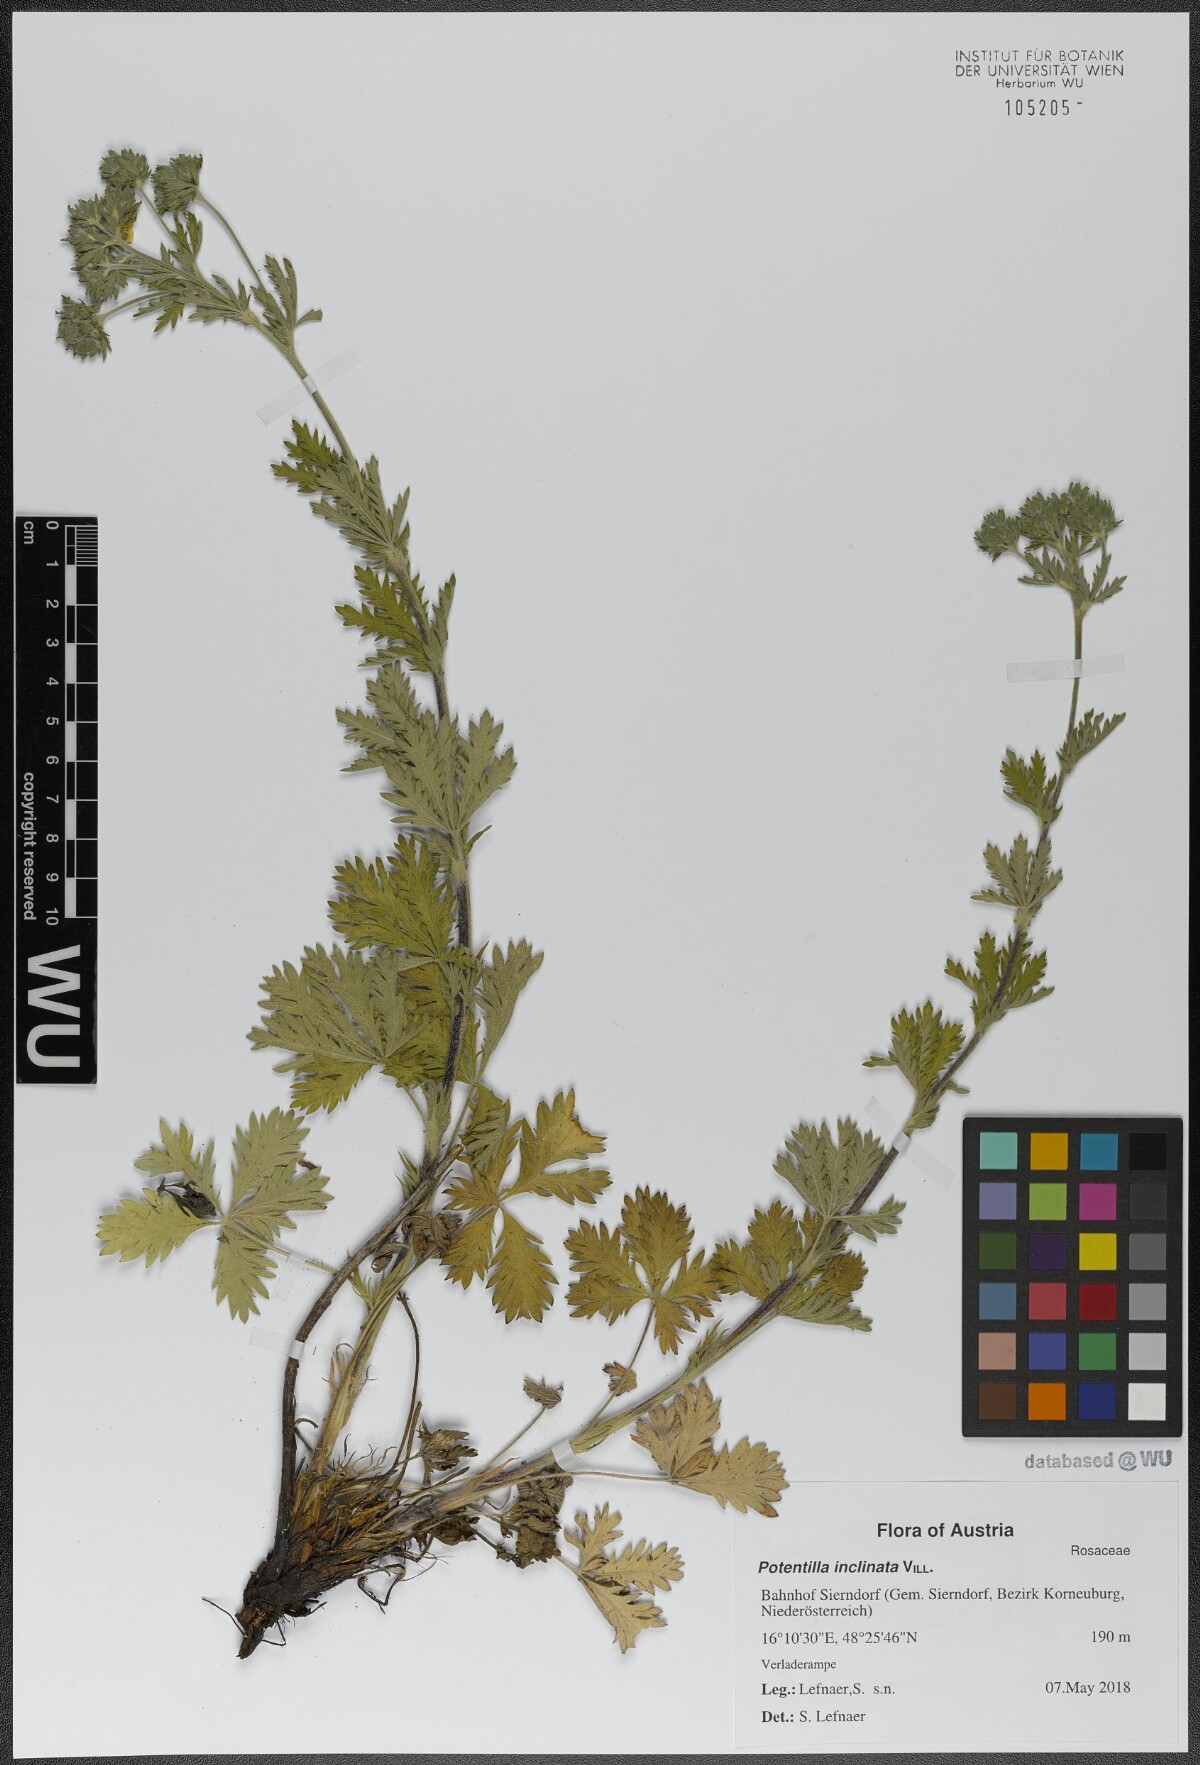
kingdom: Plantae
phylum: Tracheophyta
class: Magnoliopsida
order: Rosales
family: Rosaceae
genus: Potentilla
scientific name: Potentilla inclinata
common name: Grey cinquefoil
